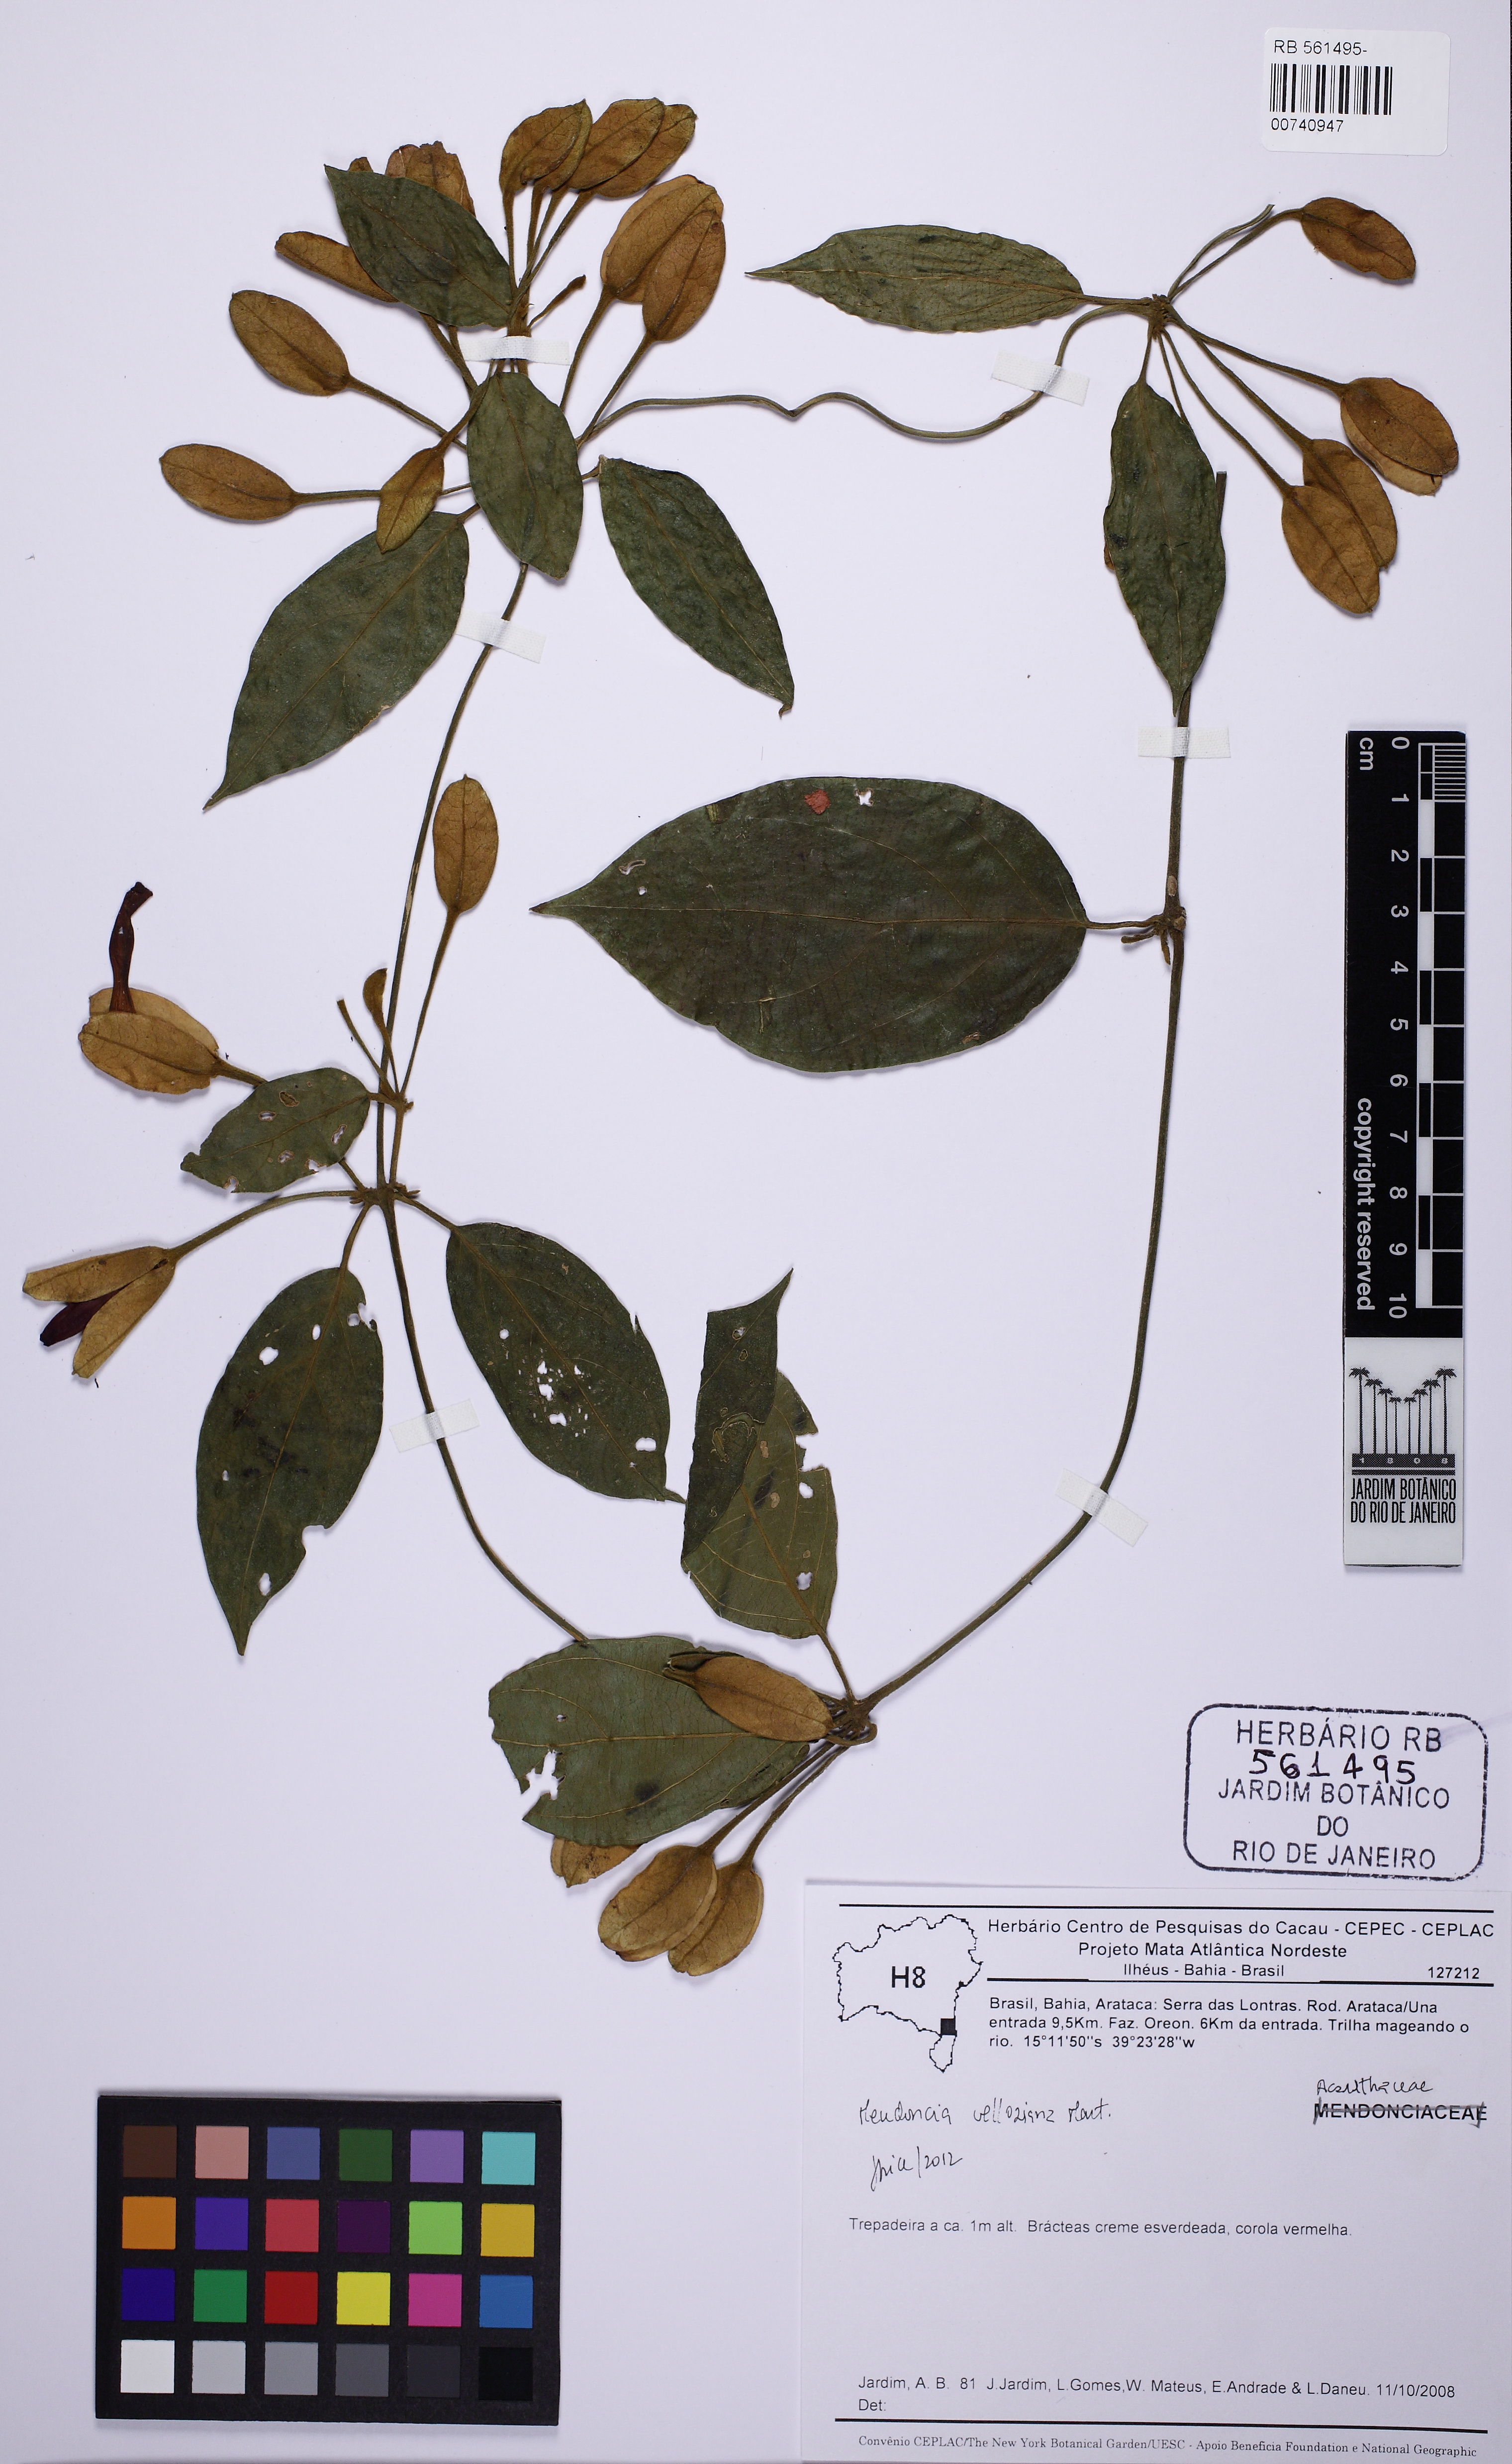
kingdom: Plantae
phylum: Tracheophyta
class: Magnoliopsida
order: Lamiales
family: Acanthaceae
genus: Mendoncia
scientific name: Mendoncia velloziana
